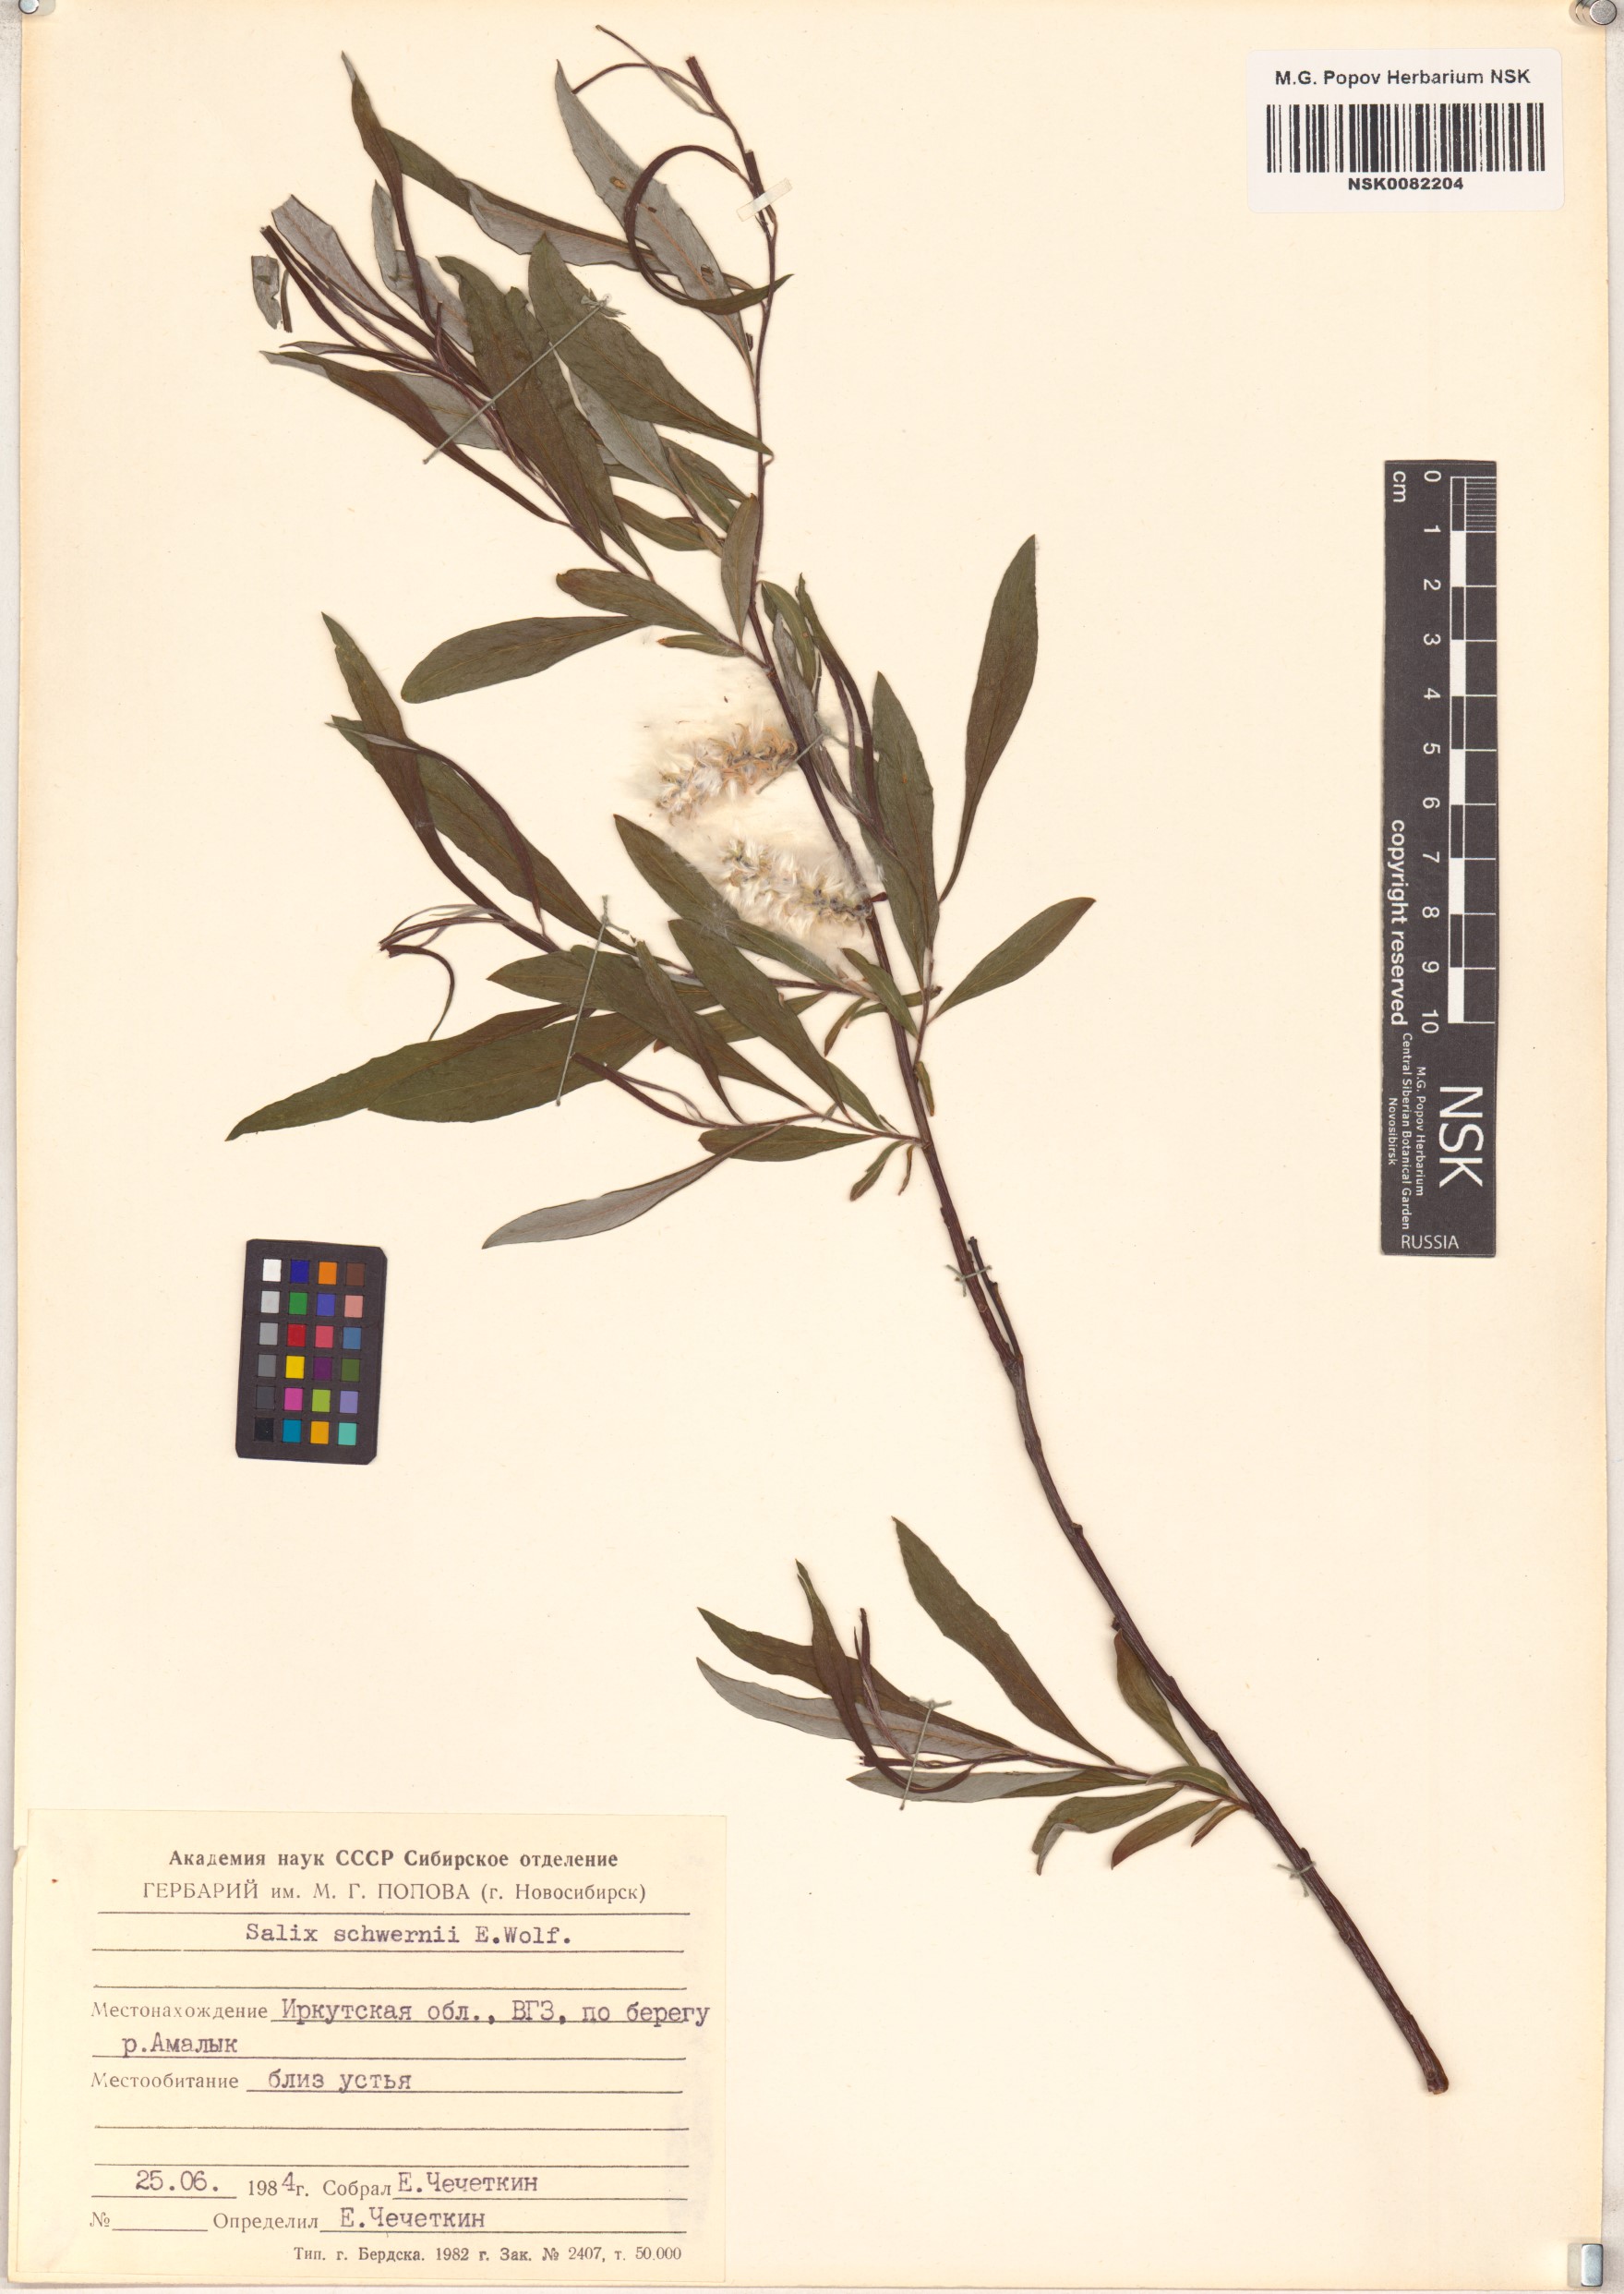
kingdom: Plantae
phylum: Tracheophyta
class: Magnoliopsida
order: Malpighiales
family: Salicaceae
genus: Salix
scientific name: Salix schwerinii
